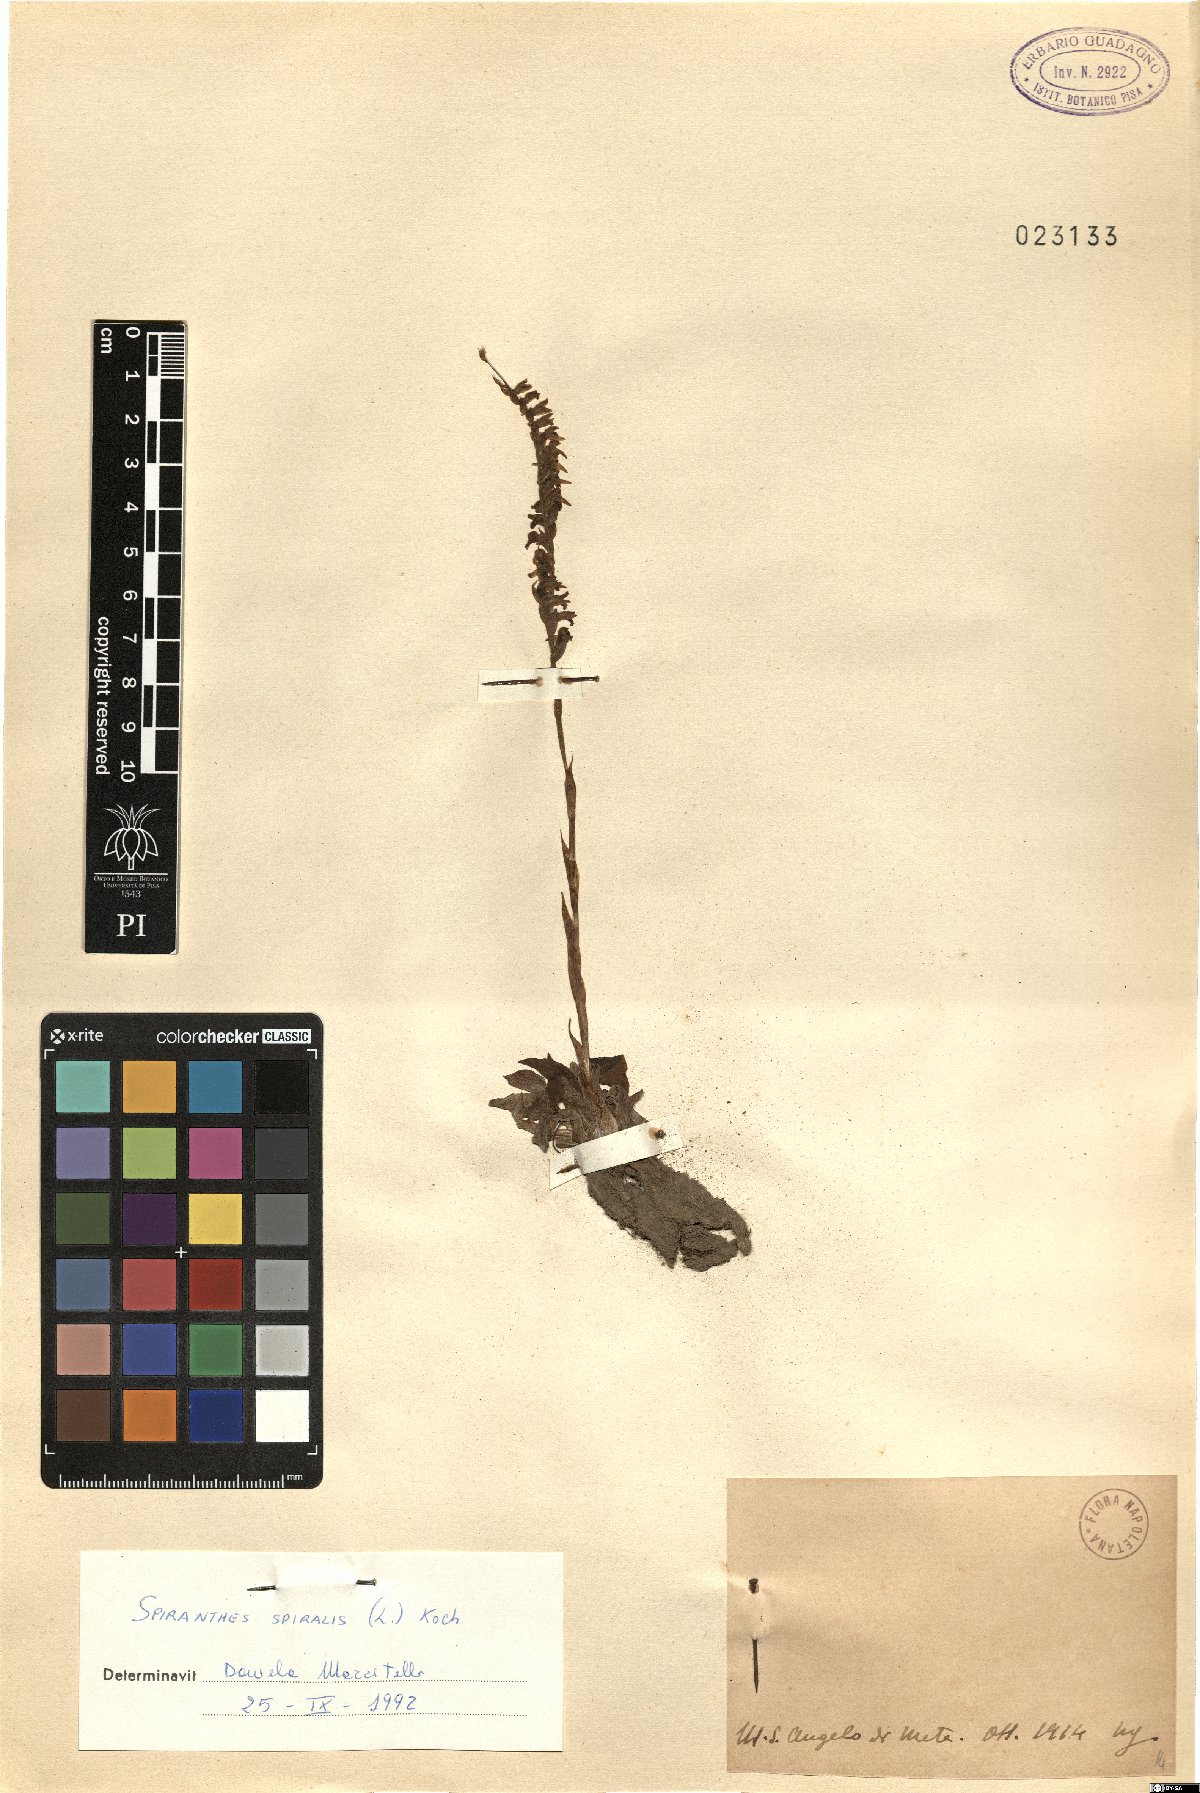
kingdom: Plantae
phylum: Tracheophyta
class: Liliopsida
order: Asparagales
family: Orchidaceae
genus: Spiranthes
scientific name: Spiranthes spiralis
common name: Autumn lady's-tresses
